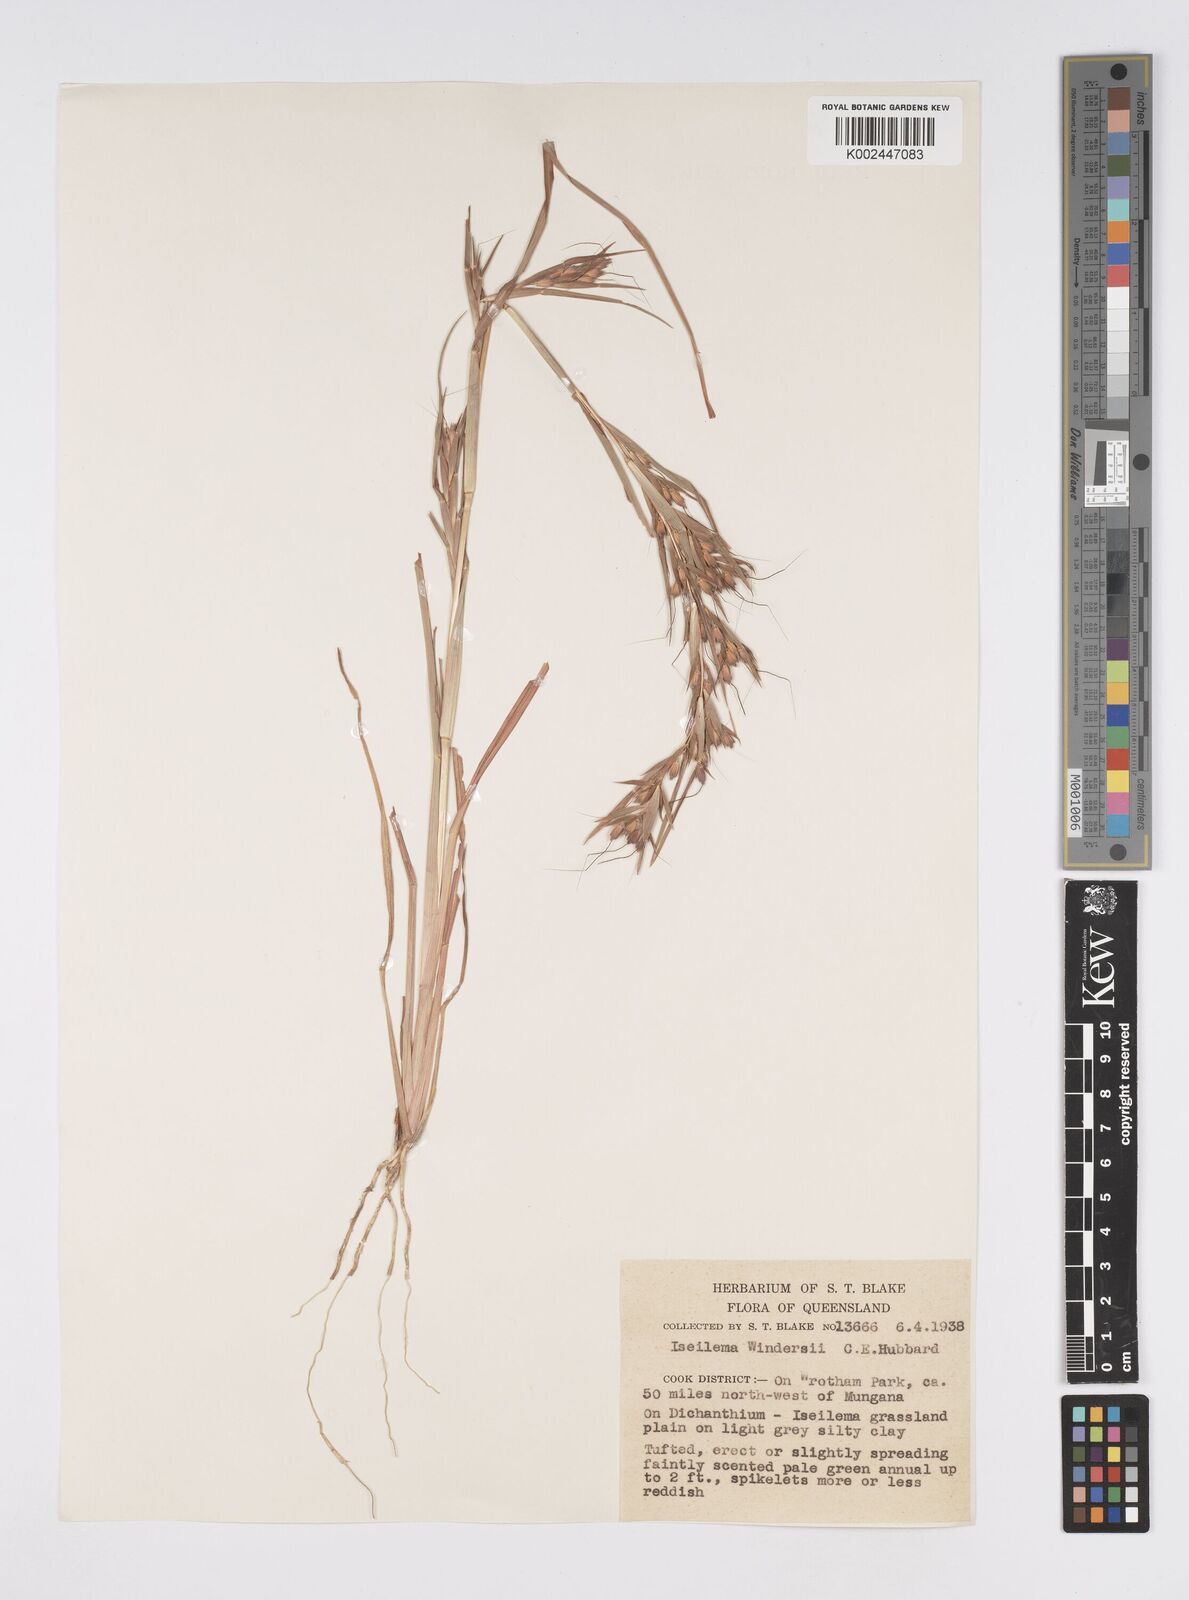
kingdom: Plantae
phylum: Tracheophyta
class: Liliopsida
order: Poales
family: Poaceae
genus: Iseilema
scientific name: Iseilema windersii
